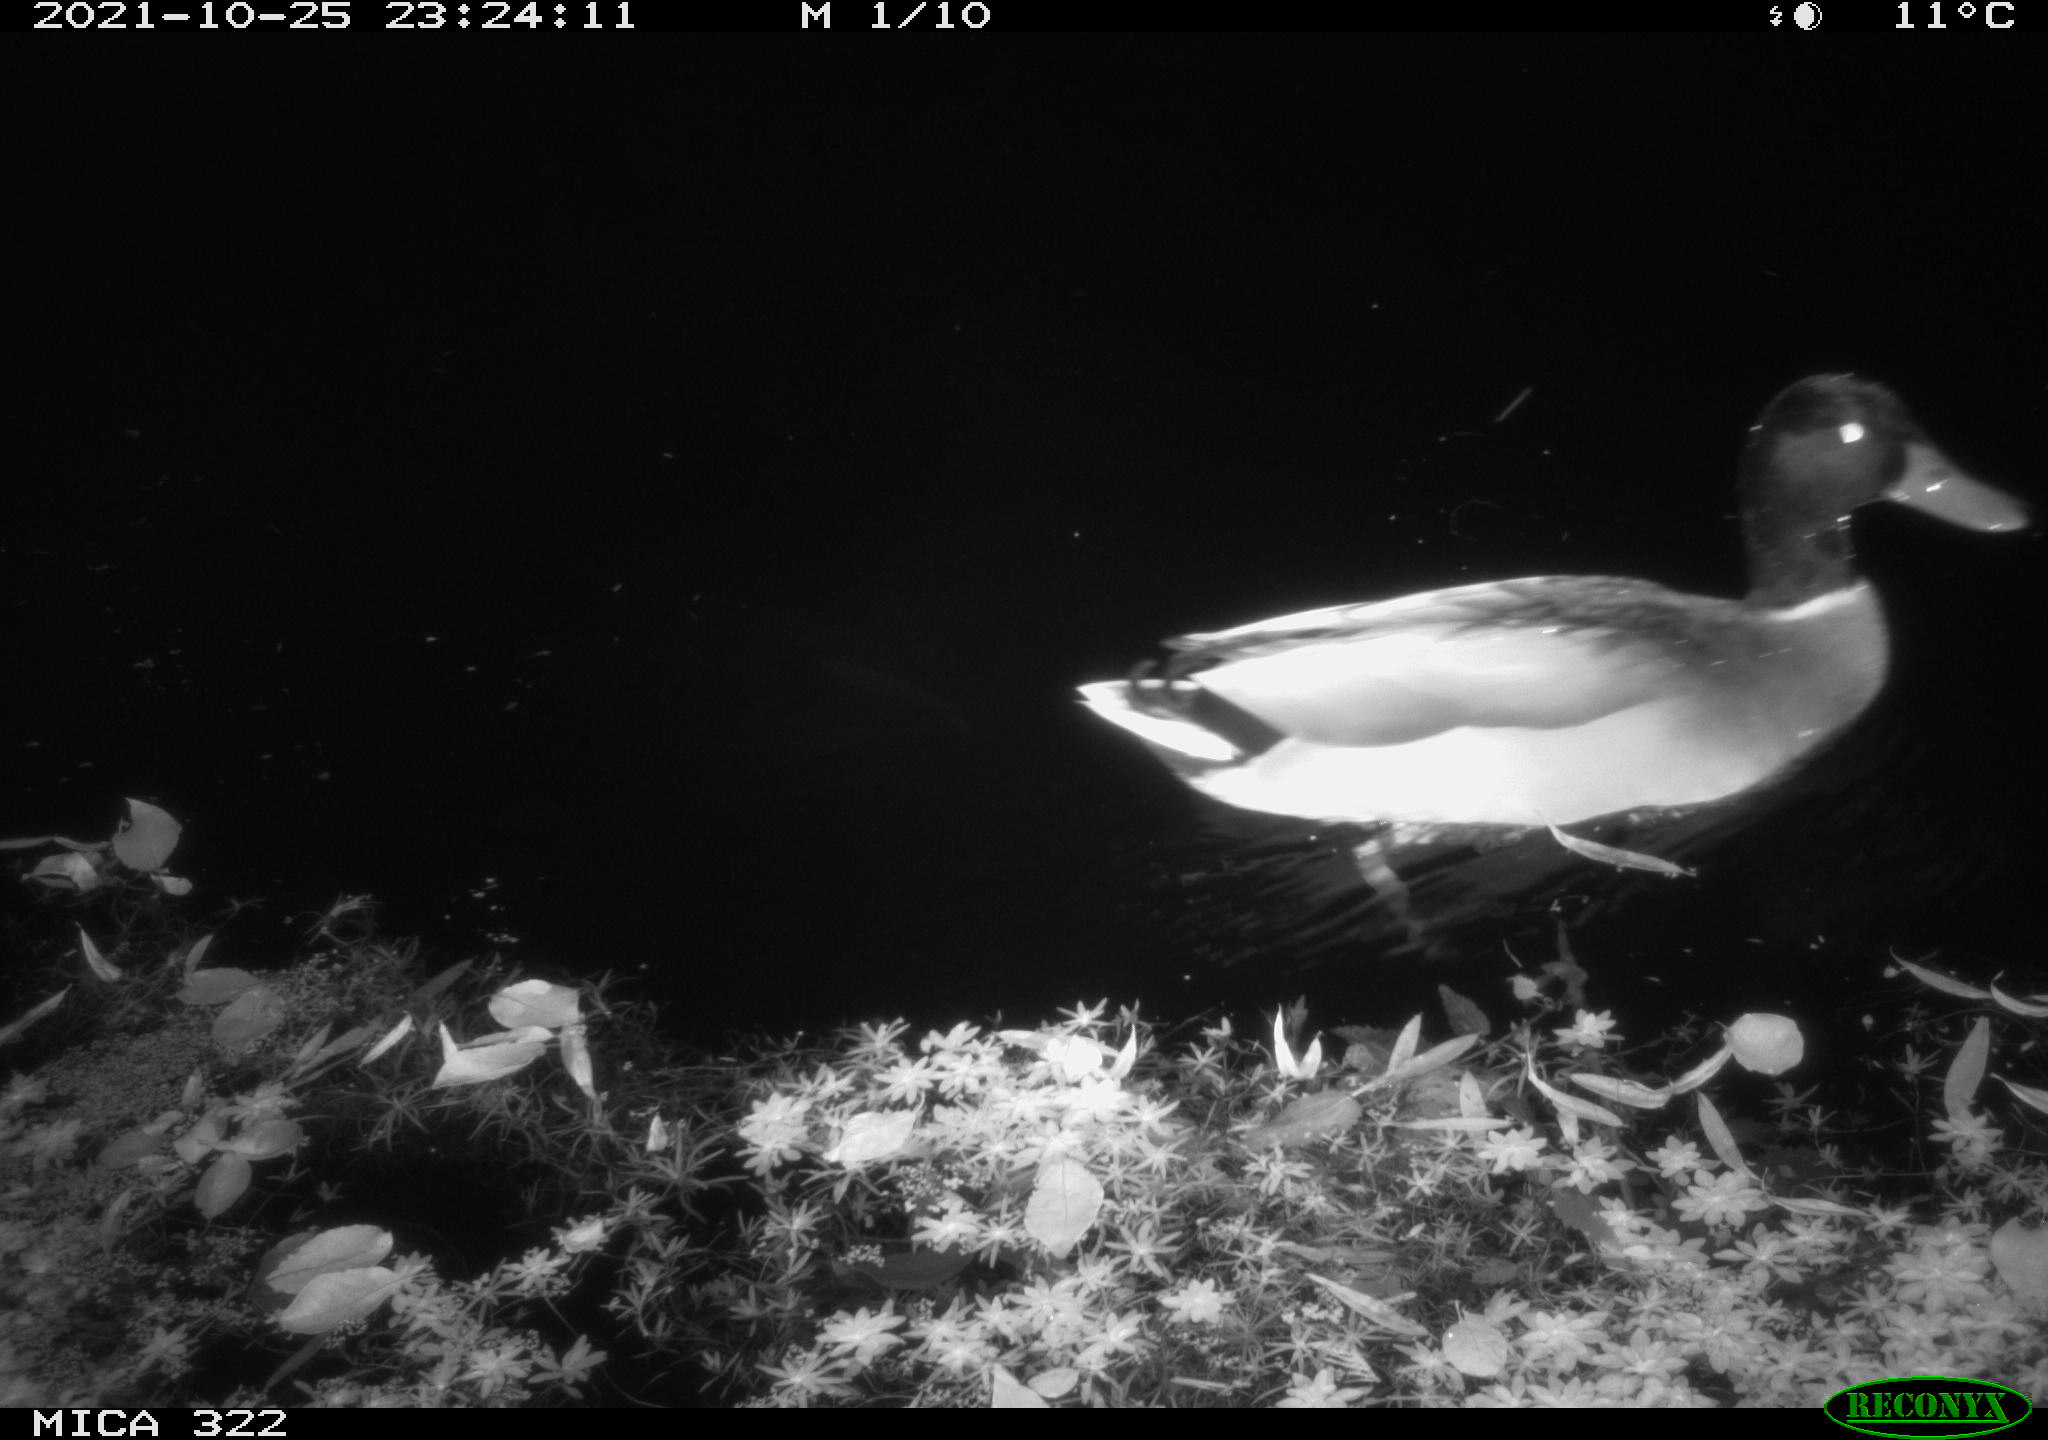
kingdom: Animalia
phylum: Chordata
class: Aves
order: Gruiformes
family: Rallidae
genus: Gallinula
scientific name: Gallinula chloropus
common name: Common moorhen
